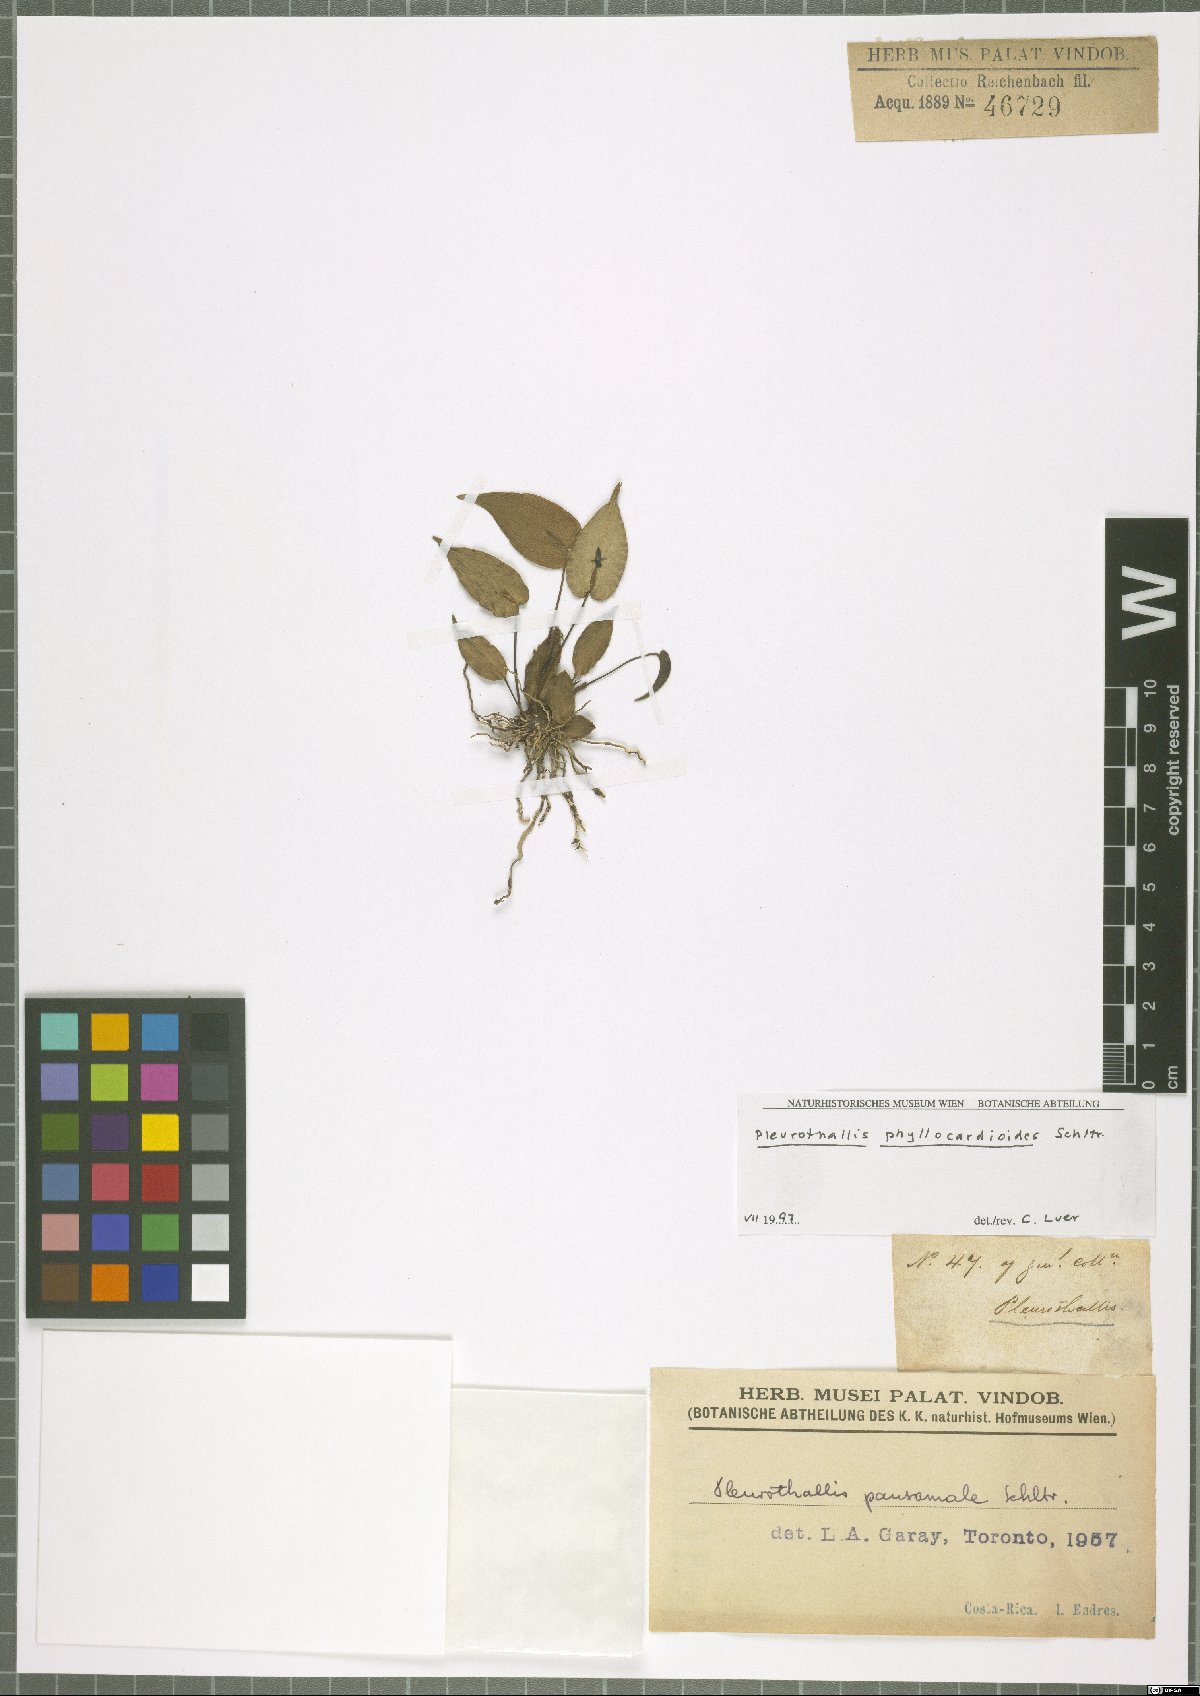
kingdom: Plantae
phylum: Tracheophyta
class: Liliopsida
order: Asparagales
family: Orchidaceae
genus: Pleurothallis
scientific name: Pleurothallis phyllocardioides
